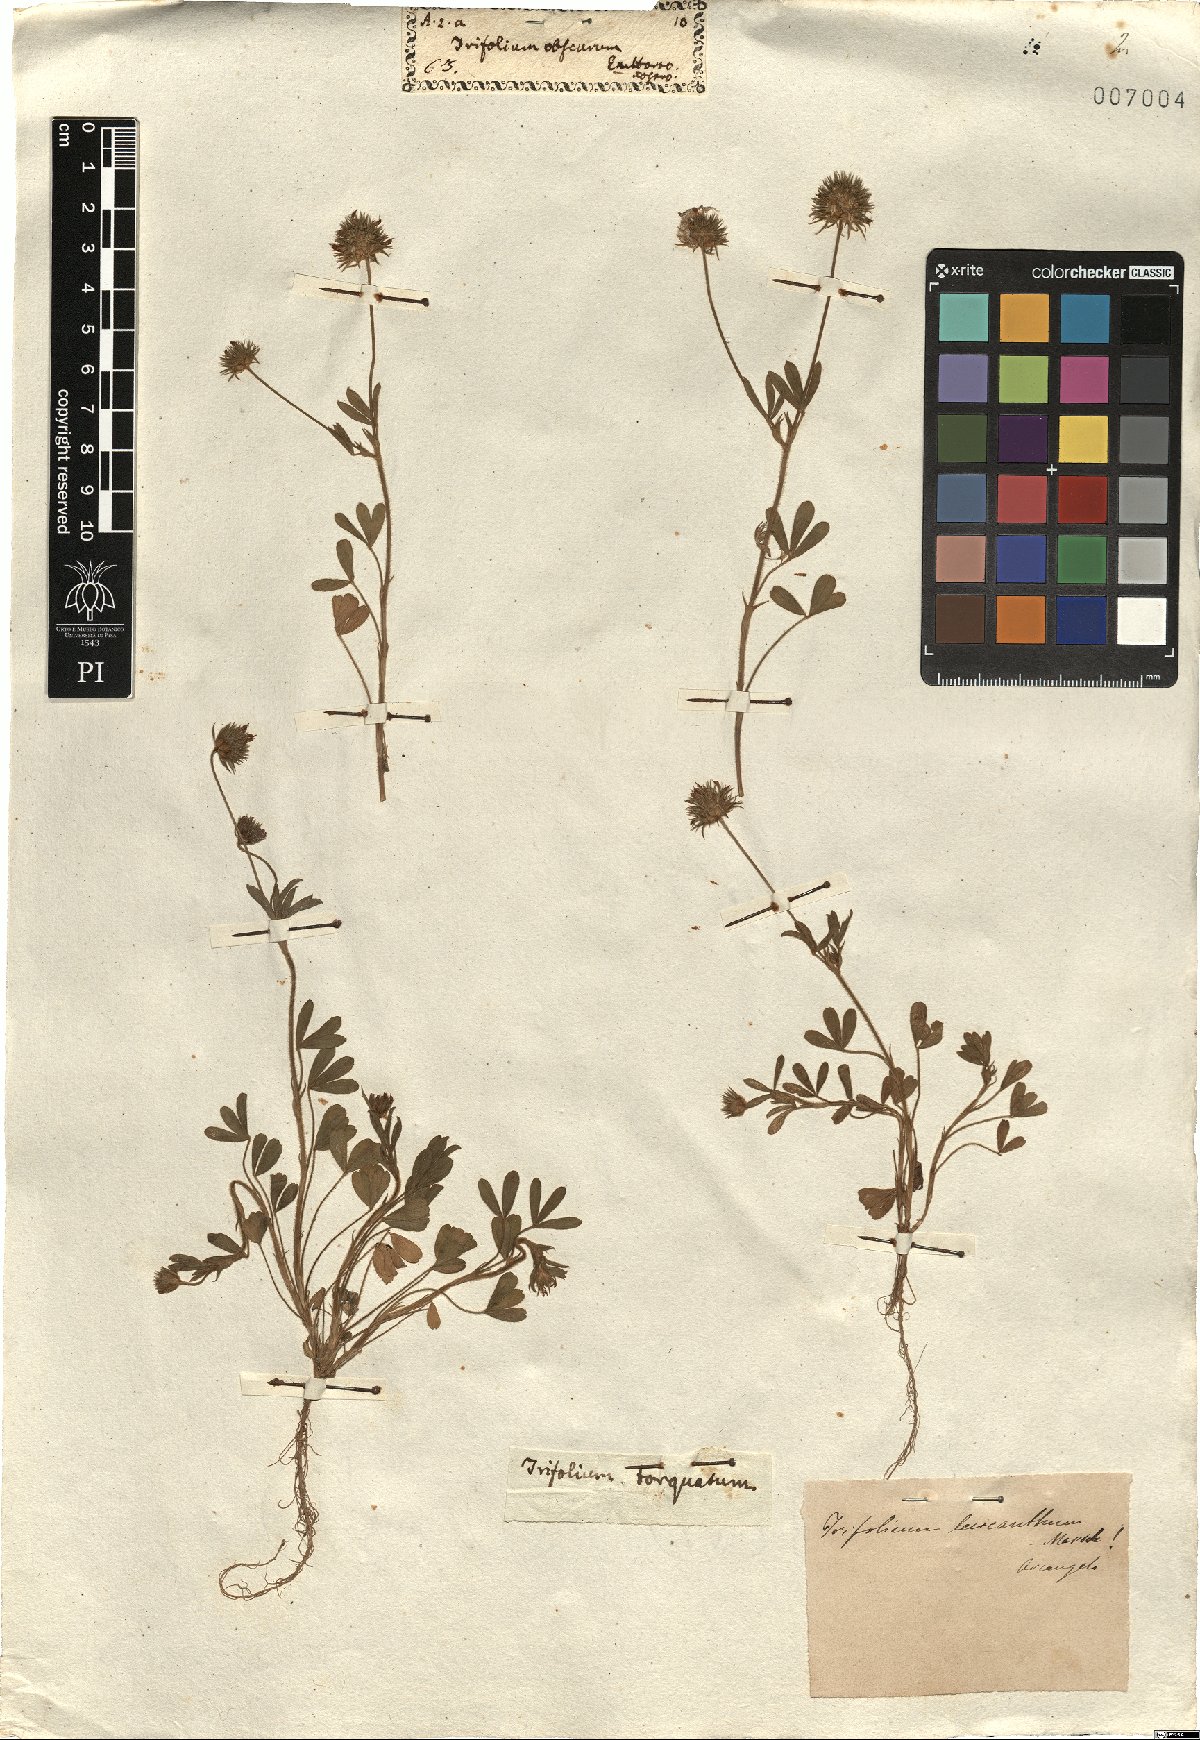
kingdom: Plantae
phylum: Tracheophyta
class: Magnoliopsida
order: Fabales
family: Fabaceae
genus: Trifolium
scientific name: Trifolium leucanthum
